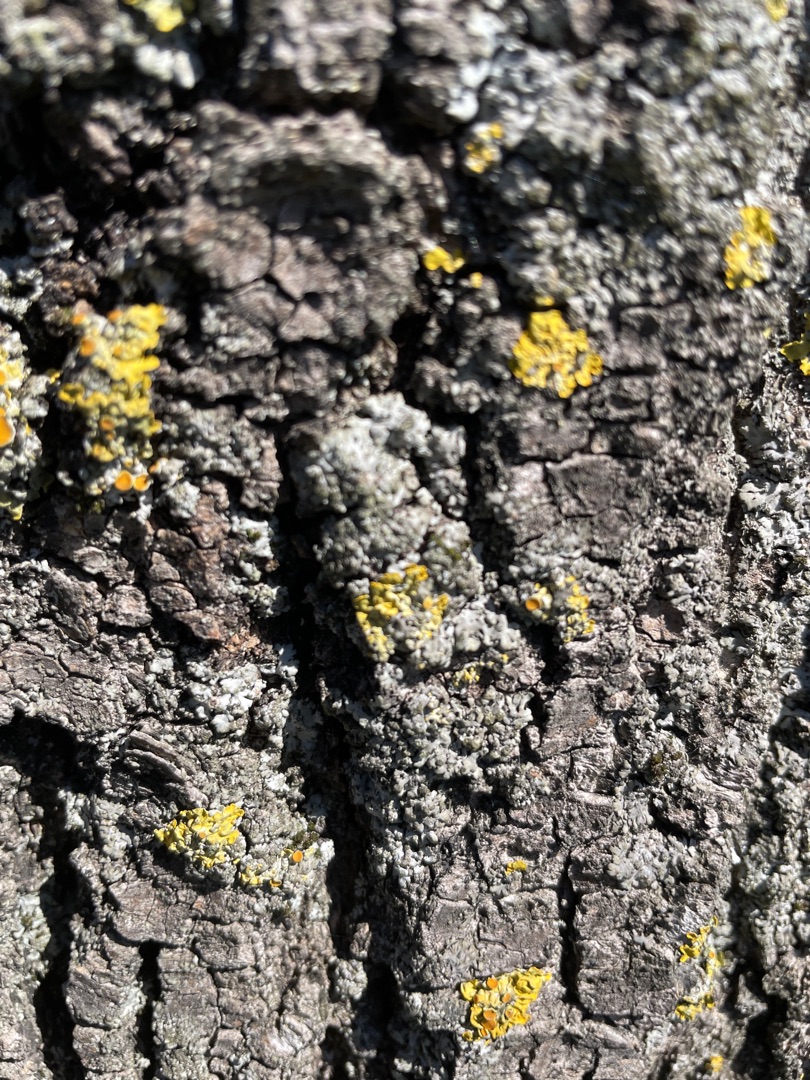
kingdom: Fungi
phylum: Ascomycota
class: Lecanoromycetes
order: Teloschistales
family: Teloschistaceae
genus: Xanthoria
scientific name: Xanthoria parietina
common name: Almindelig væggelav
